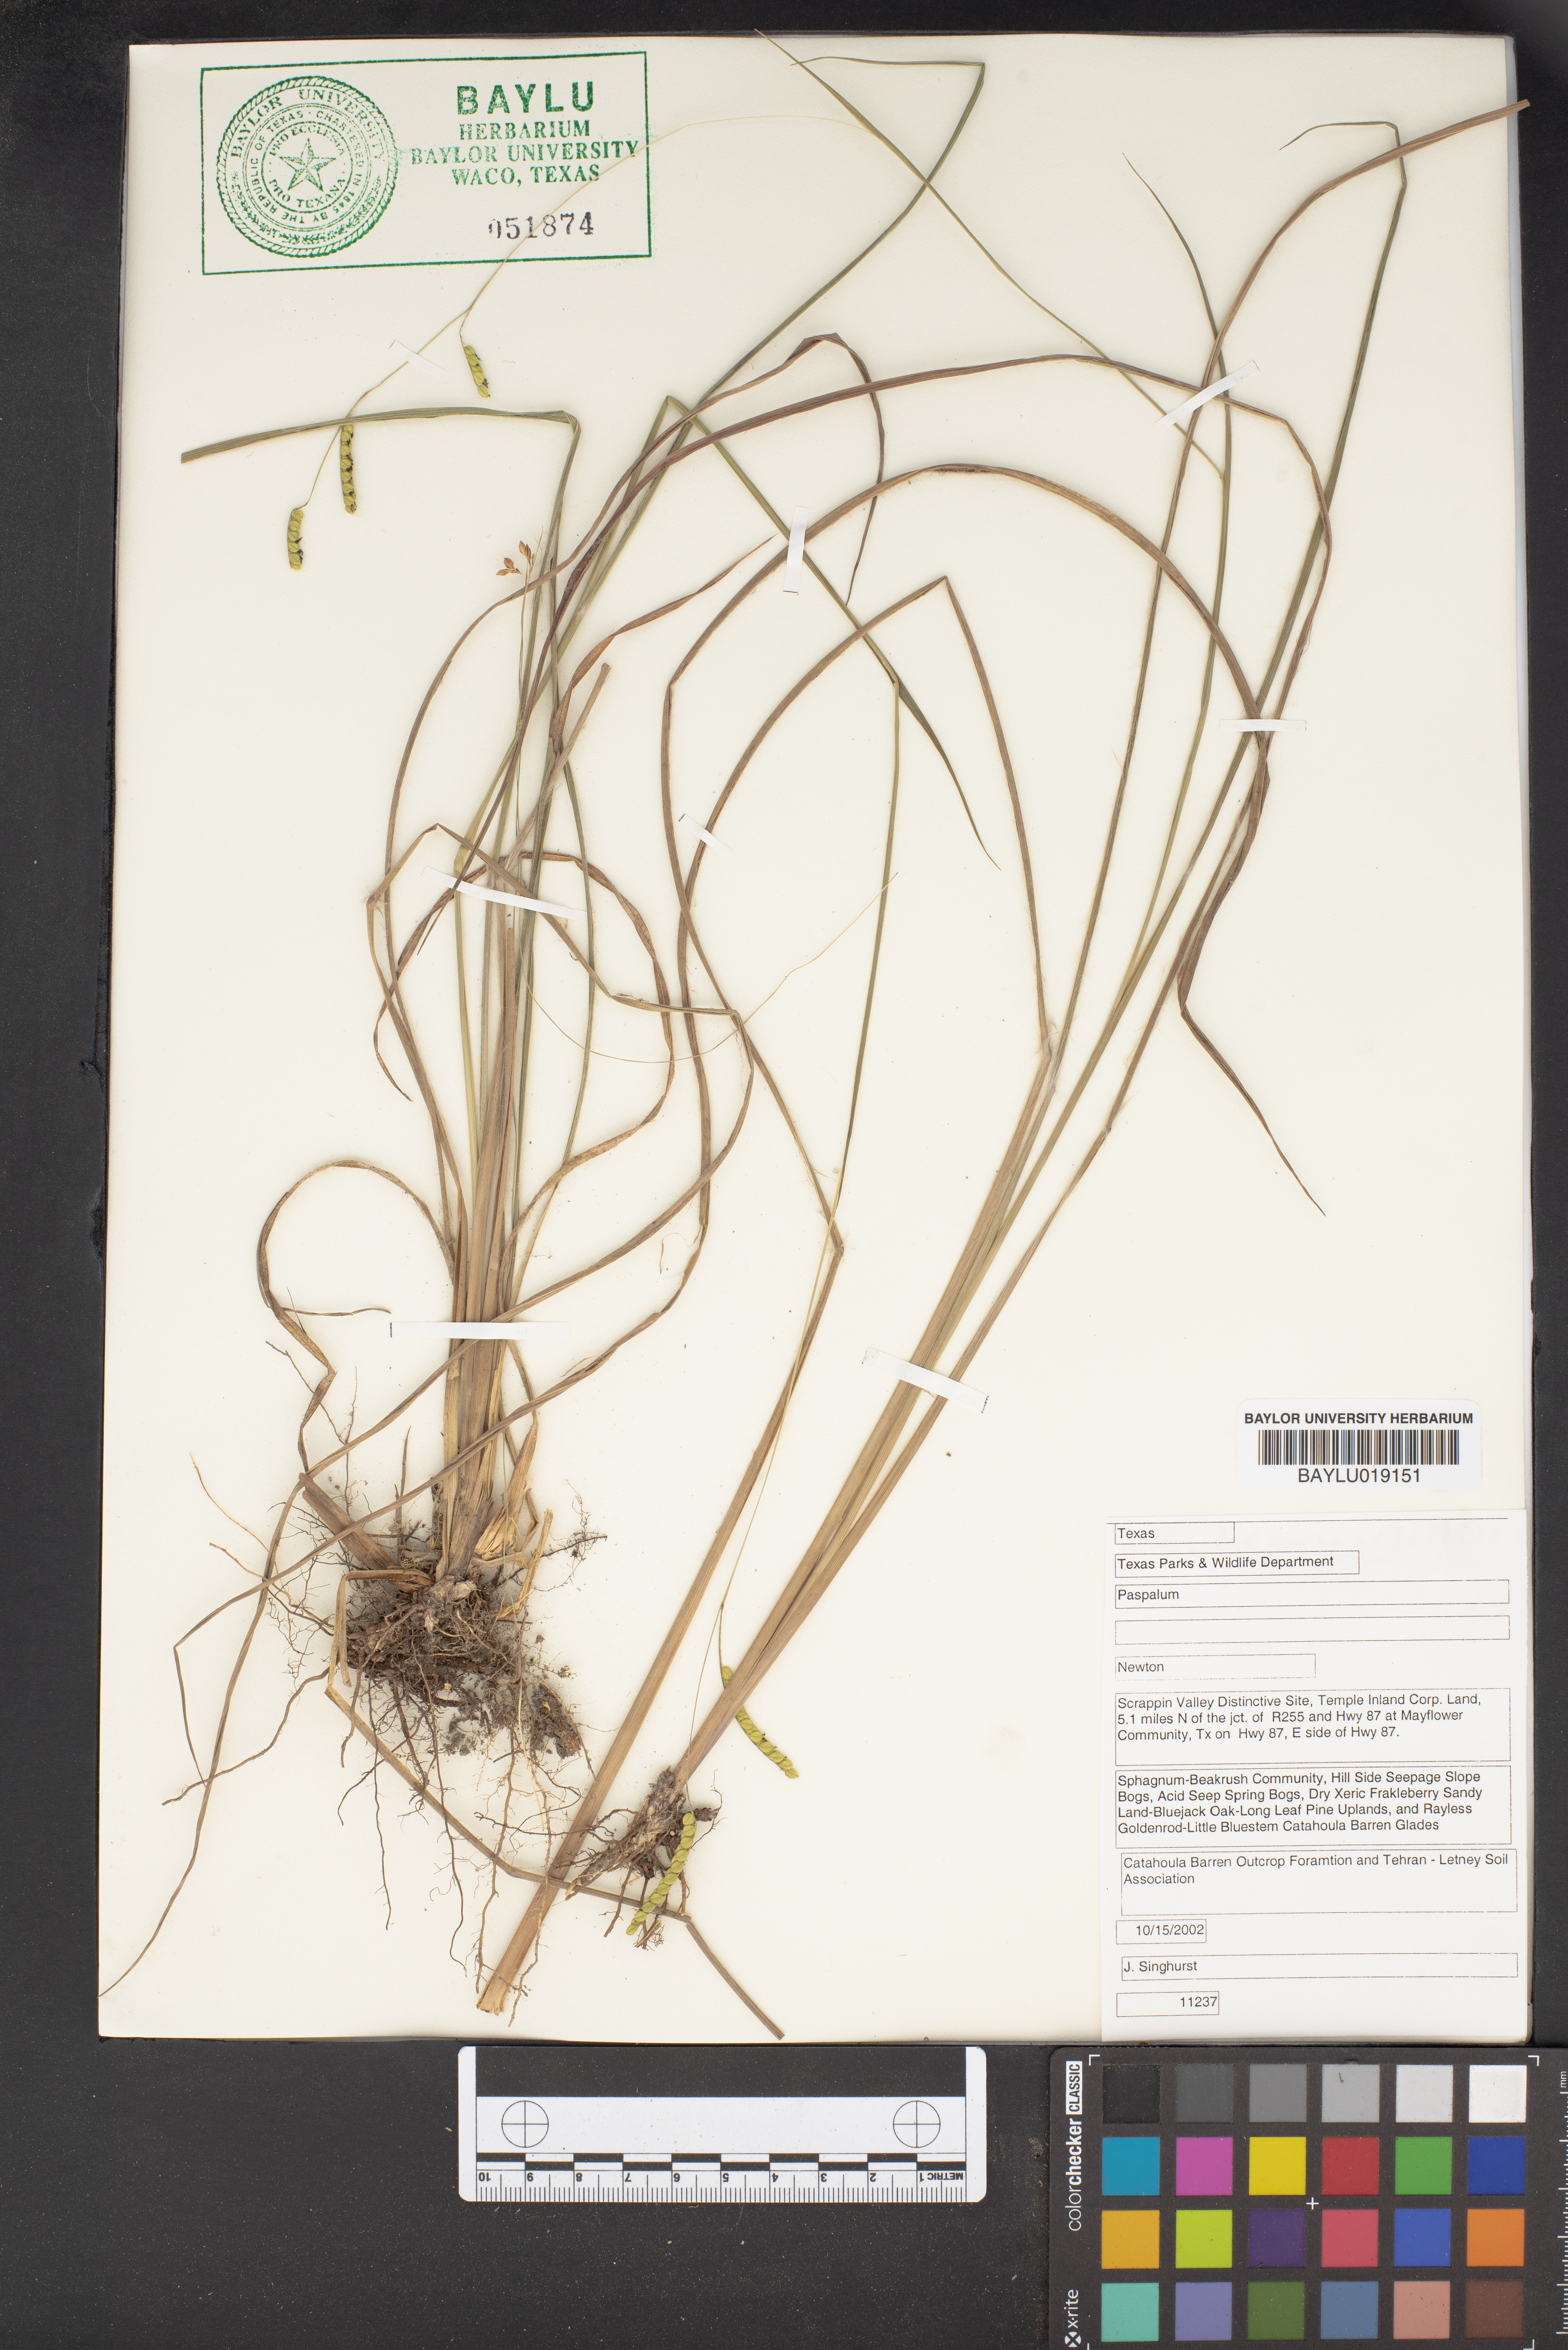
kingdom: Plantae
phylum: Tracheophyta
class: Liliopsida
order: Poales
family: Poaceae
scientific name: Poaceae
